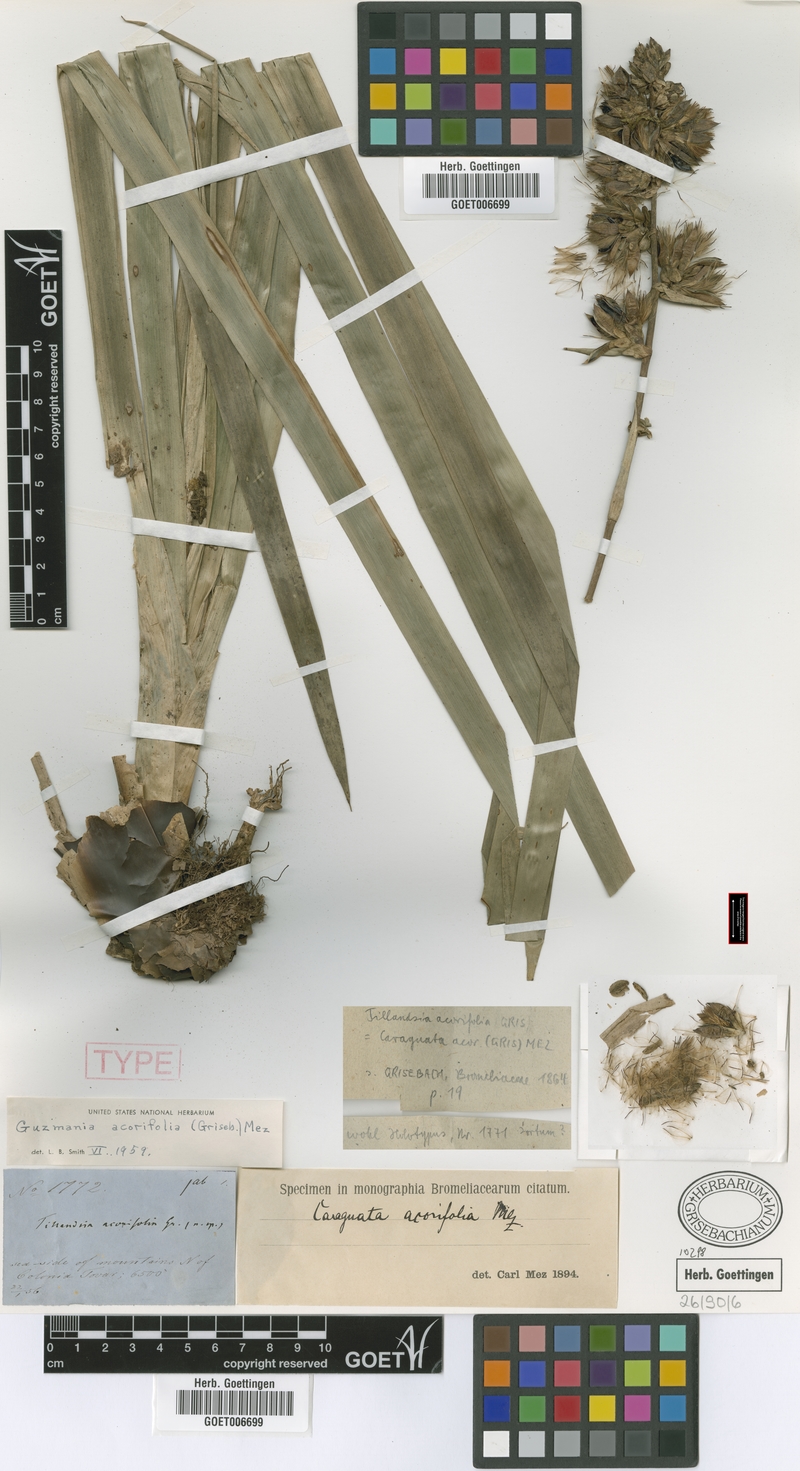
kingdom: Plantae
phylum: Tracheophyta
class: Liliopsida
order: Poales
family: Bromeliaceae
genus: Guzmania
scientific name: Guzmania acorifolia
